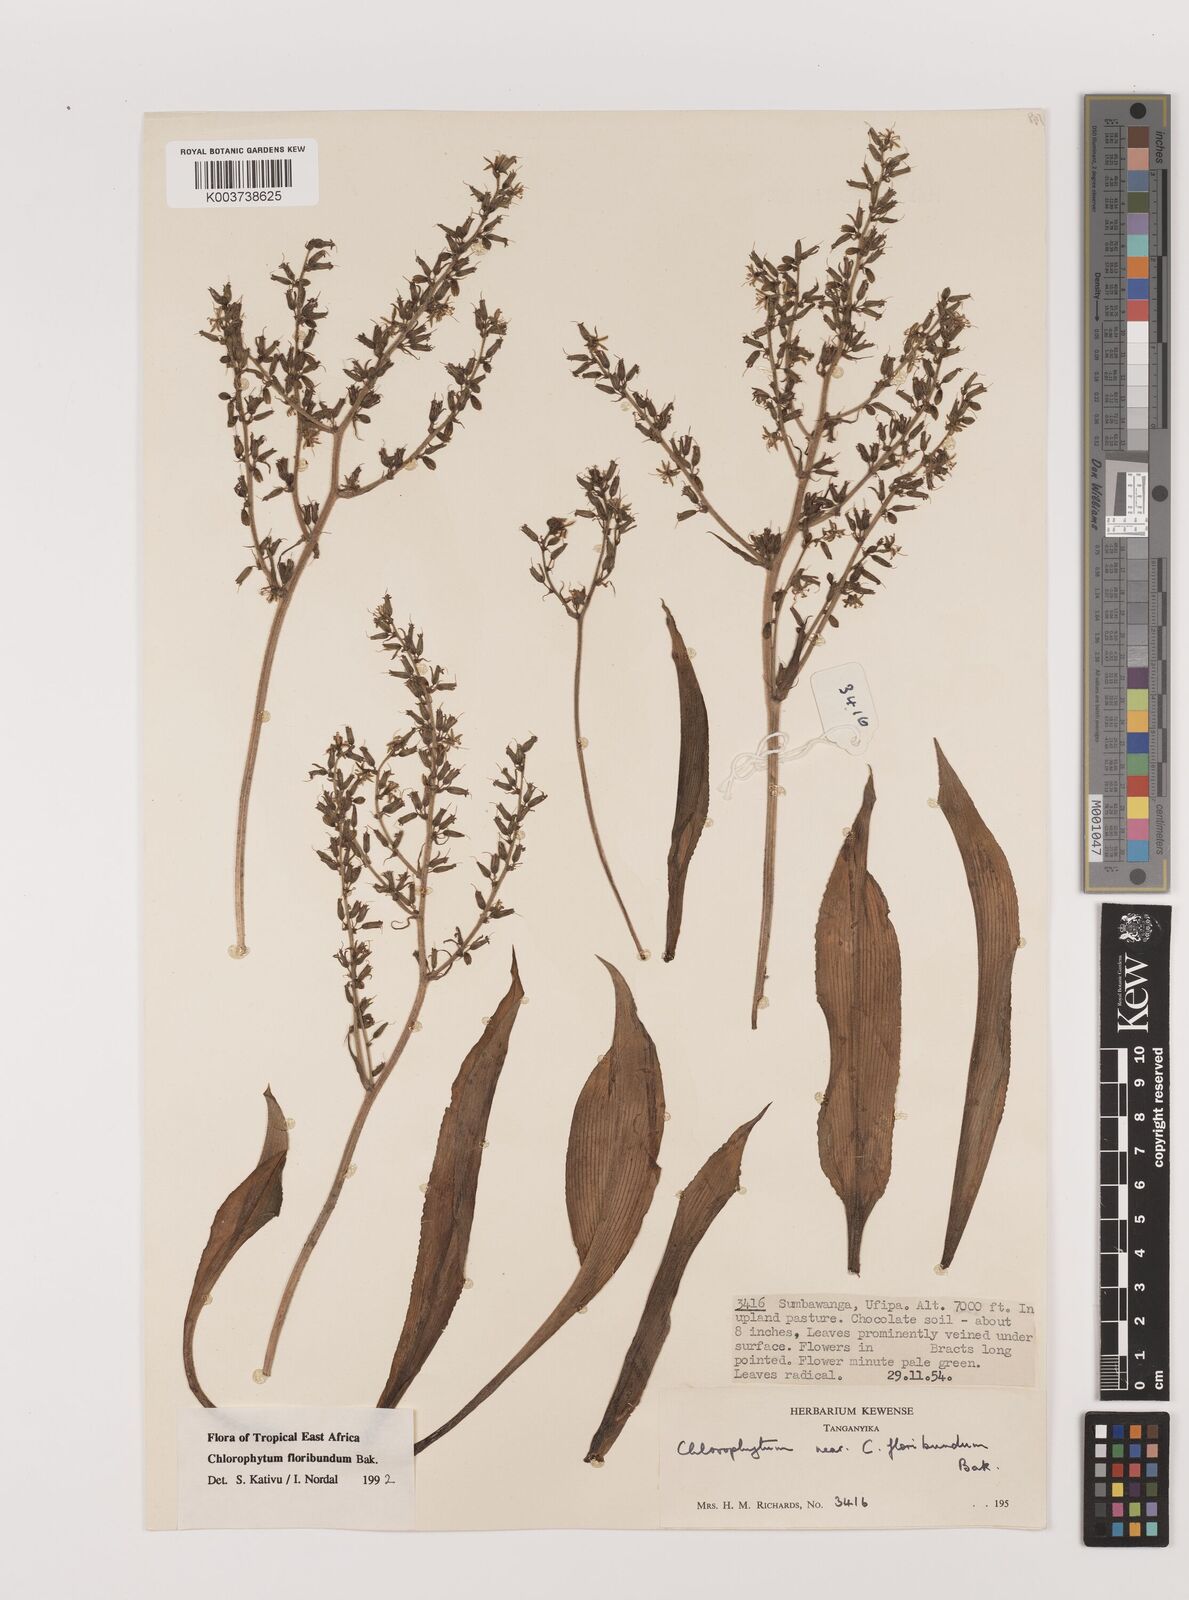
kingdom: Plantae
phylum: Tracheophyta
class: Liliopsida
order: Asparagales
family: Asparagaceae
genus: Chlorophytum
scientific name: Chlorophytum gallabatense
